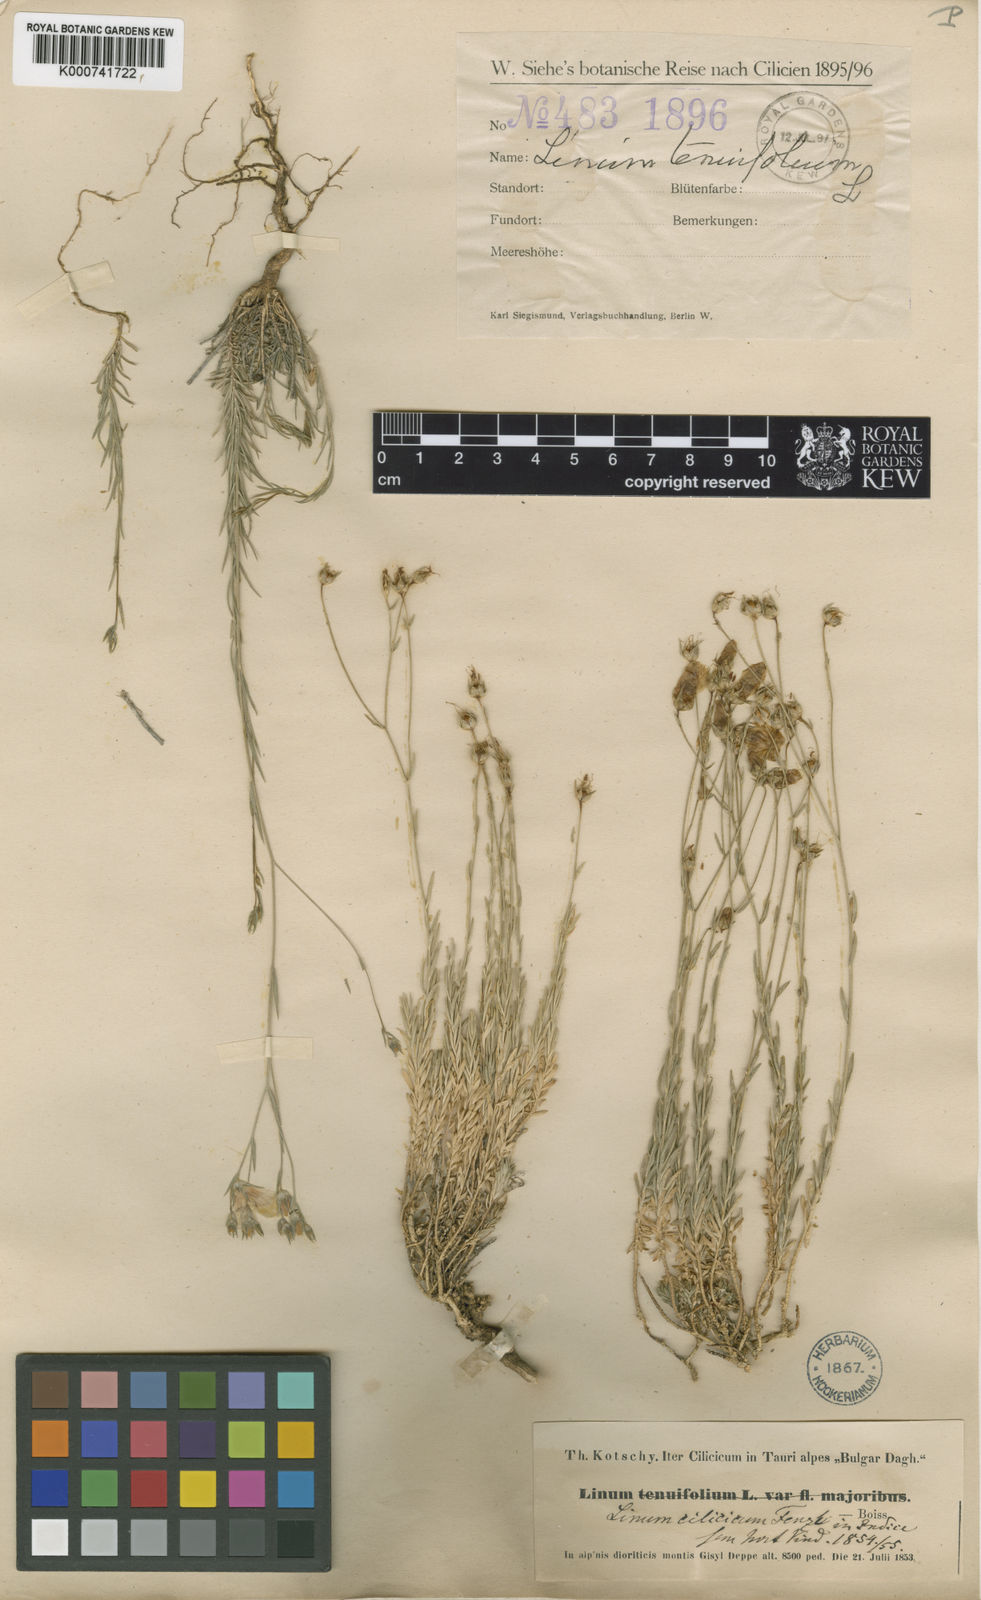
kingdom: Plantae
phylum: Tracheophyta
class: Magnoliopsida
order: Malpighiales
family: Linaceae
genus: Linum
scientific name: Linum tenuifolium
